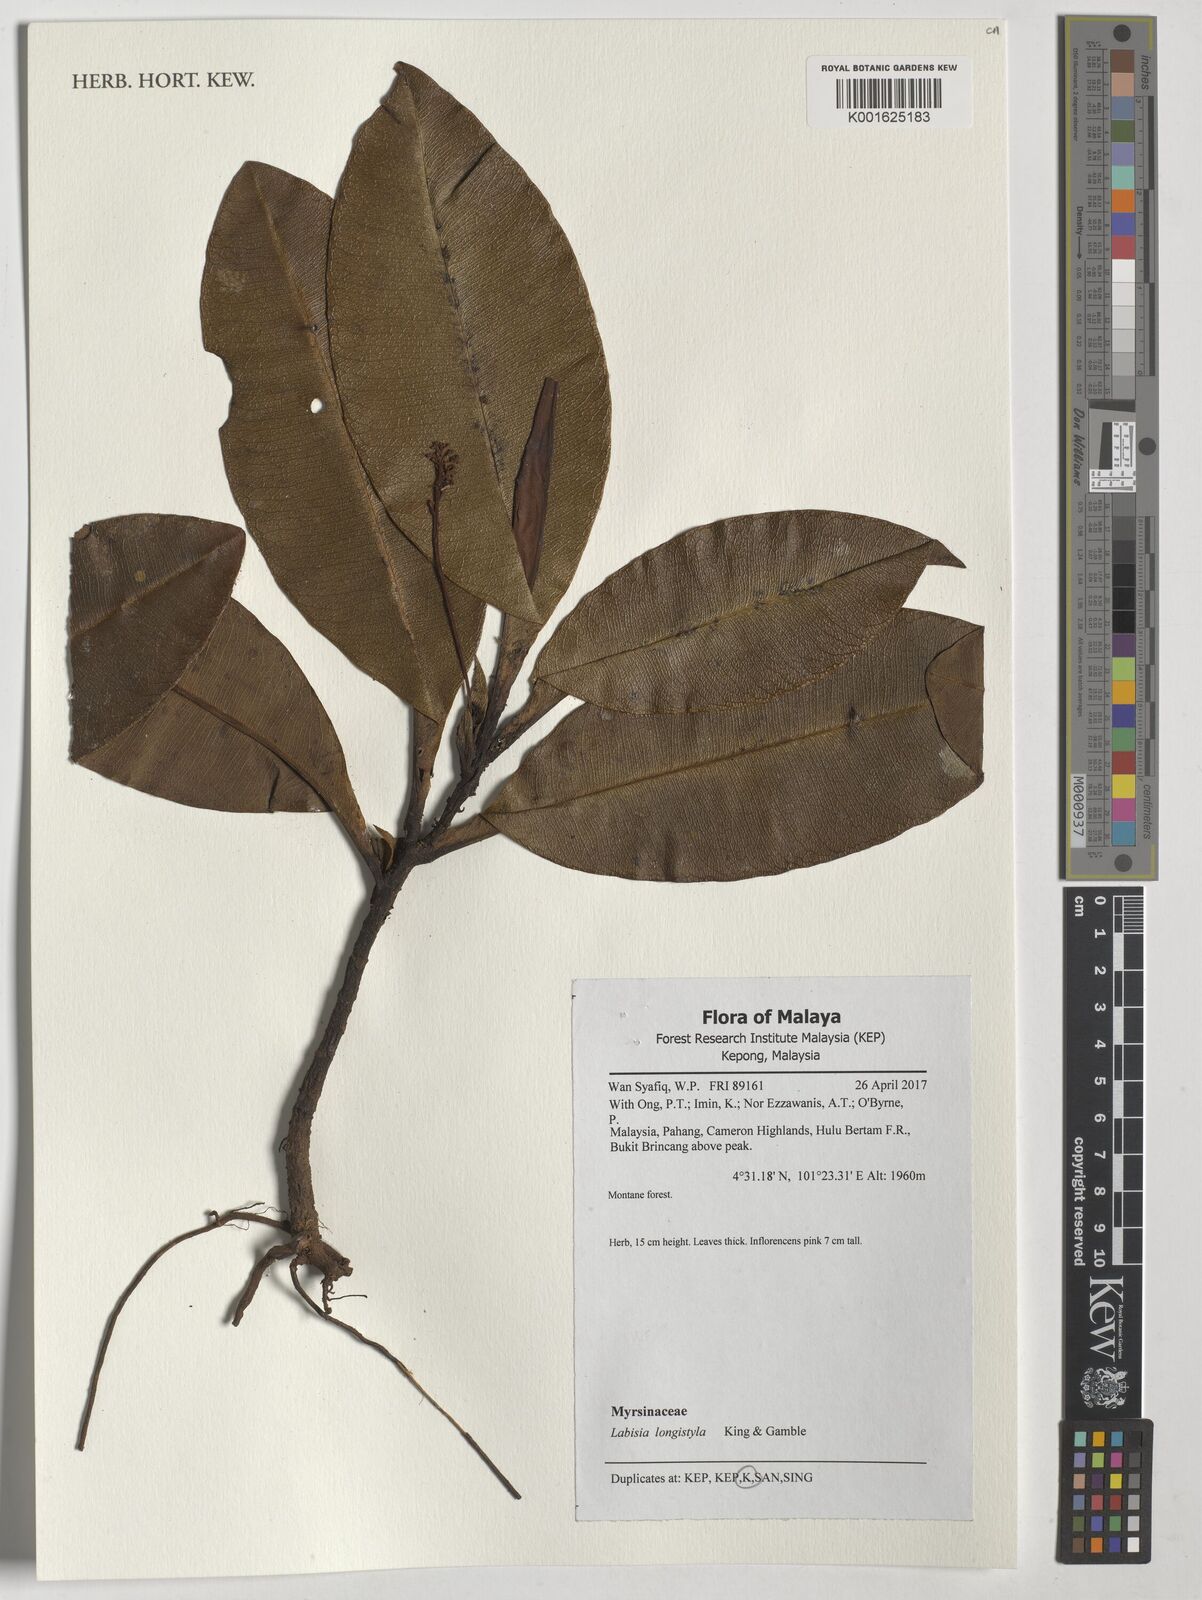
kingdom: Plantae
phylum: Tracheophyta
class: Magnoliopsida
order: Ericales
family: Primulaceae
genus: Labisia
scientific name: Labisia longistyla
